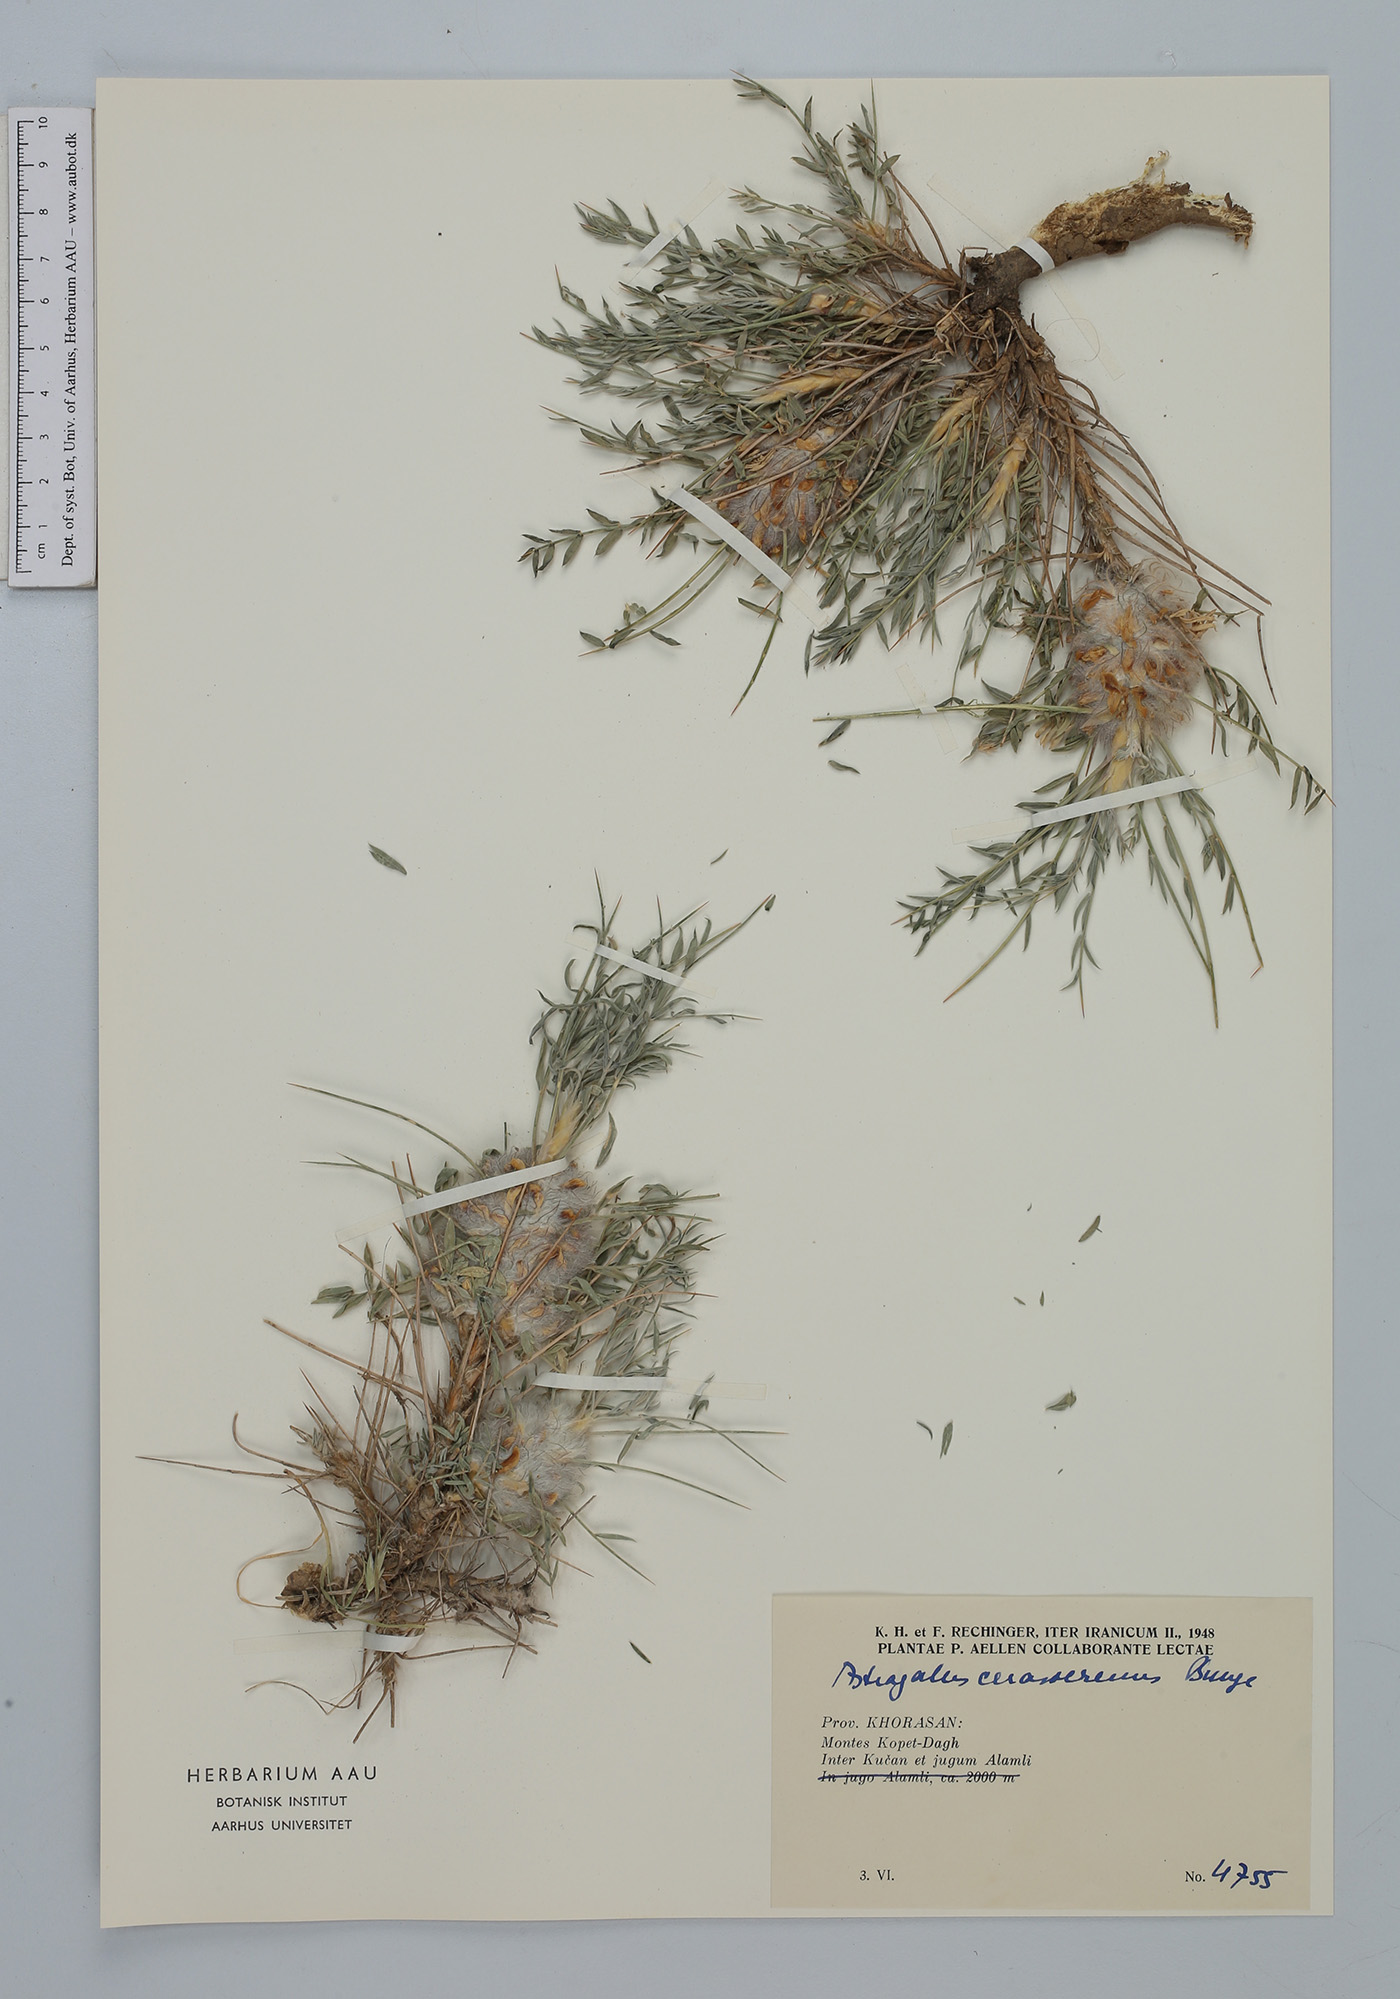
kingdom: Plantae
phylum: Tracheophyta
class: Magnoliopsida
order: Fabales
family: Fabaceae
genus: Astragalus
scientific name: Astragalus cerasocrenus
